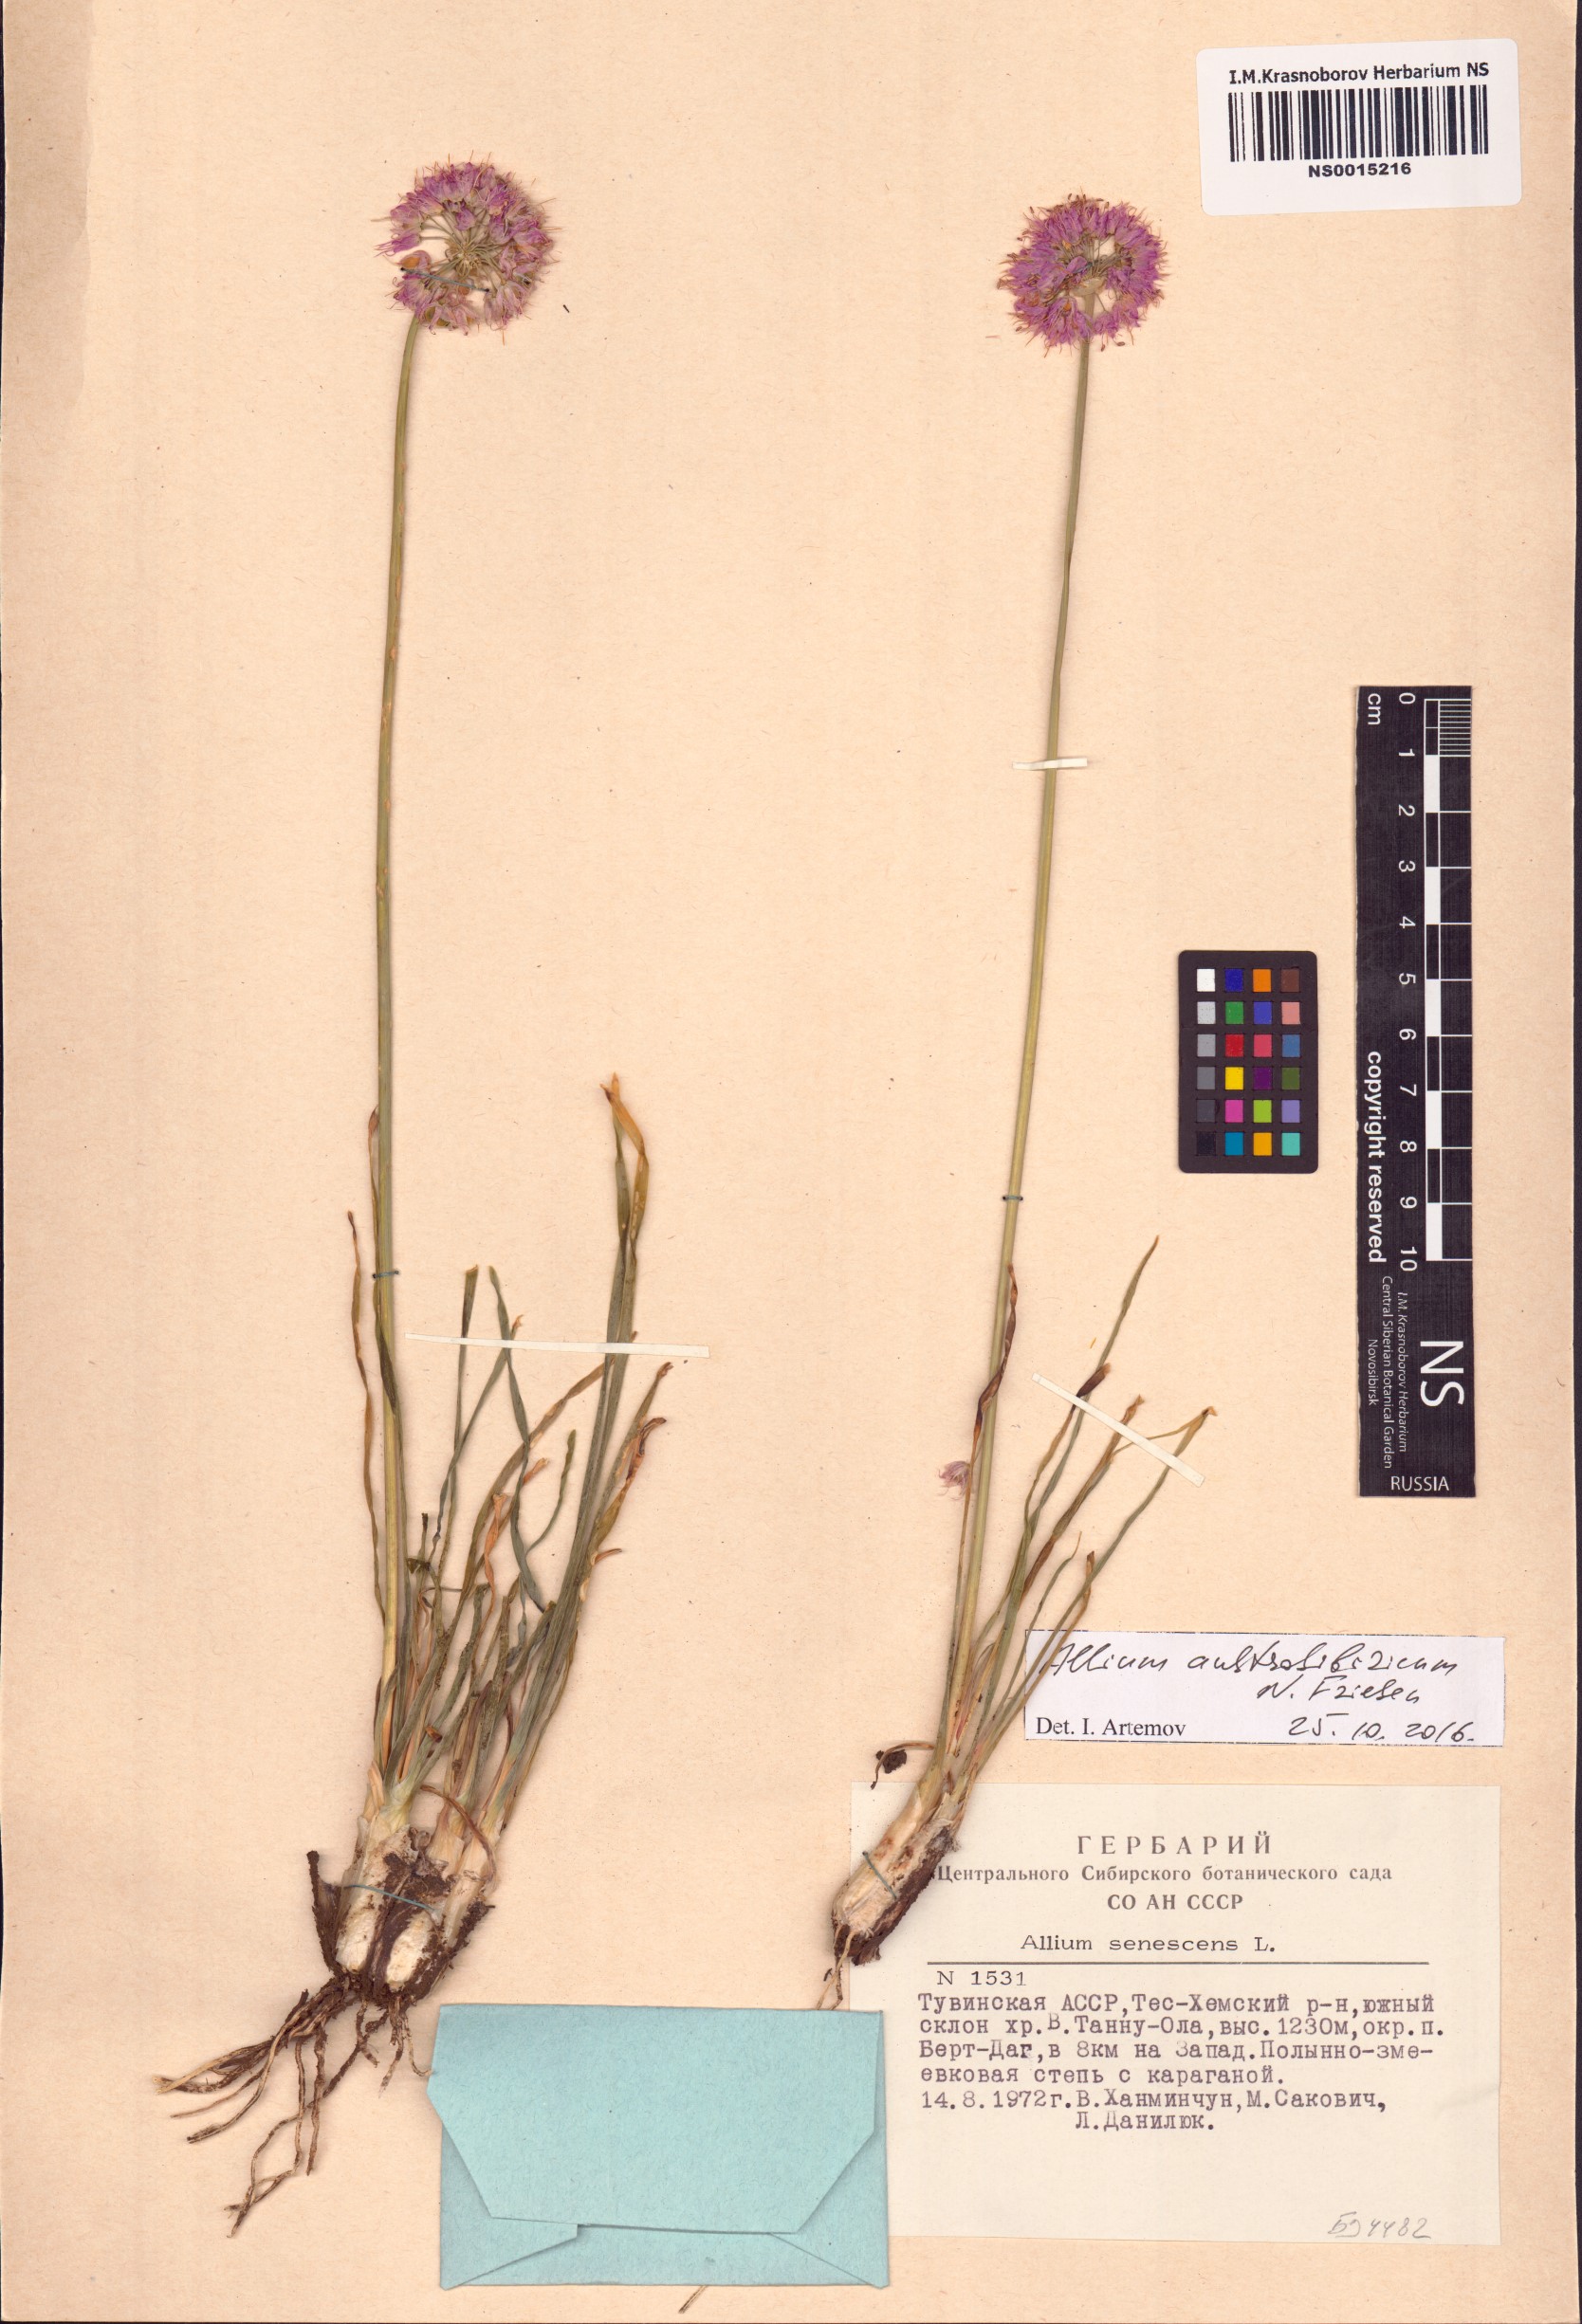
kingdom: Plantae
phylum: Tracheophyta
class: Liliopsida
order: Asparagales
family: Amaryllidaceae
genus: Allium
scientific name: Allium austrosibiricum
